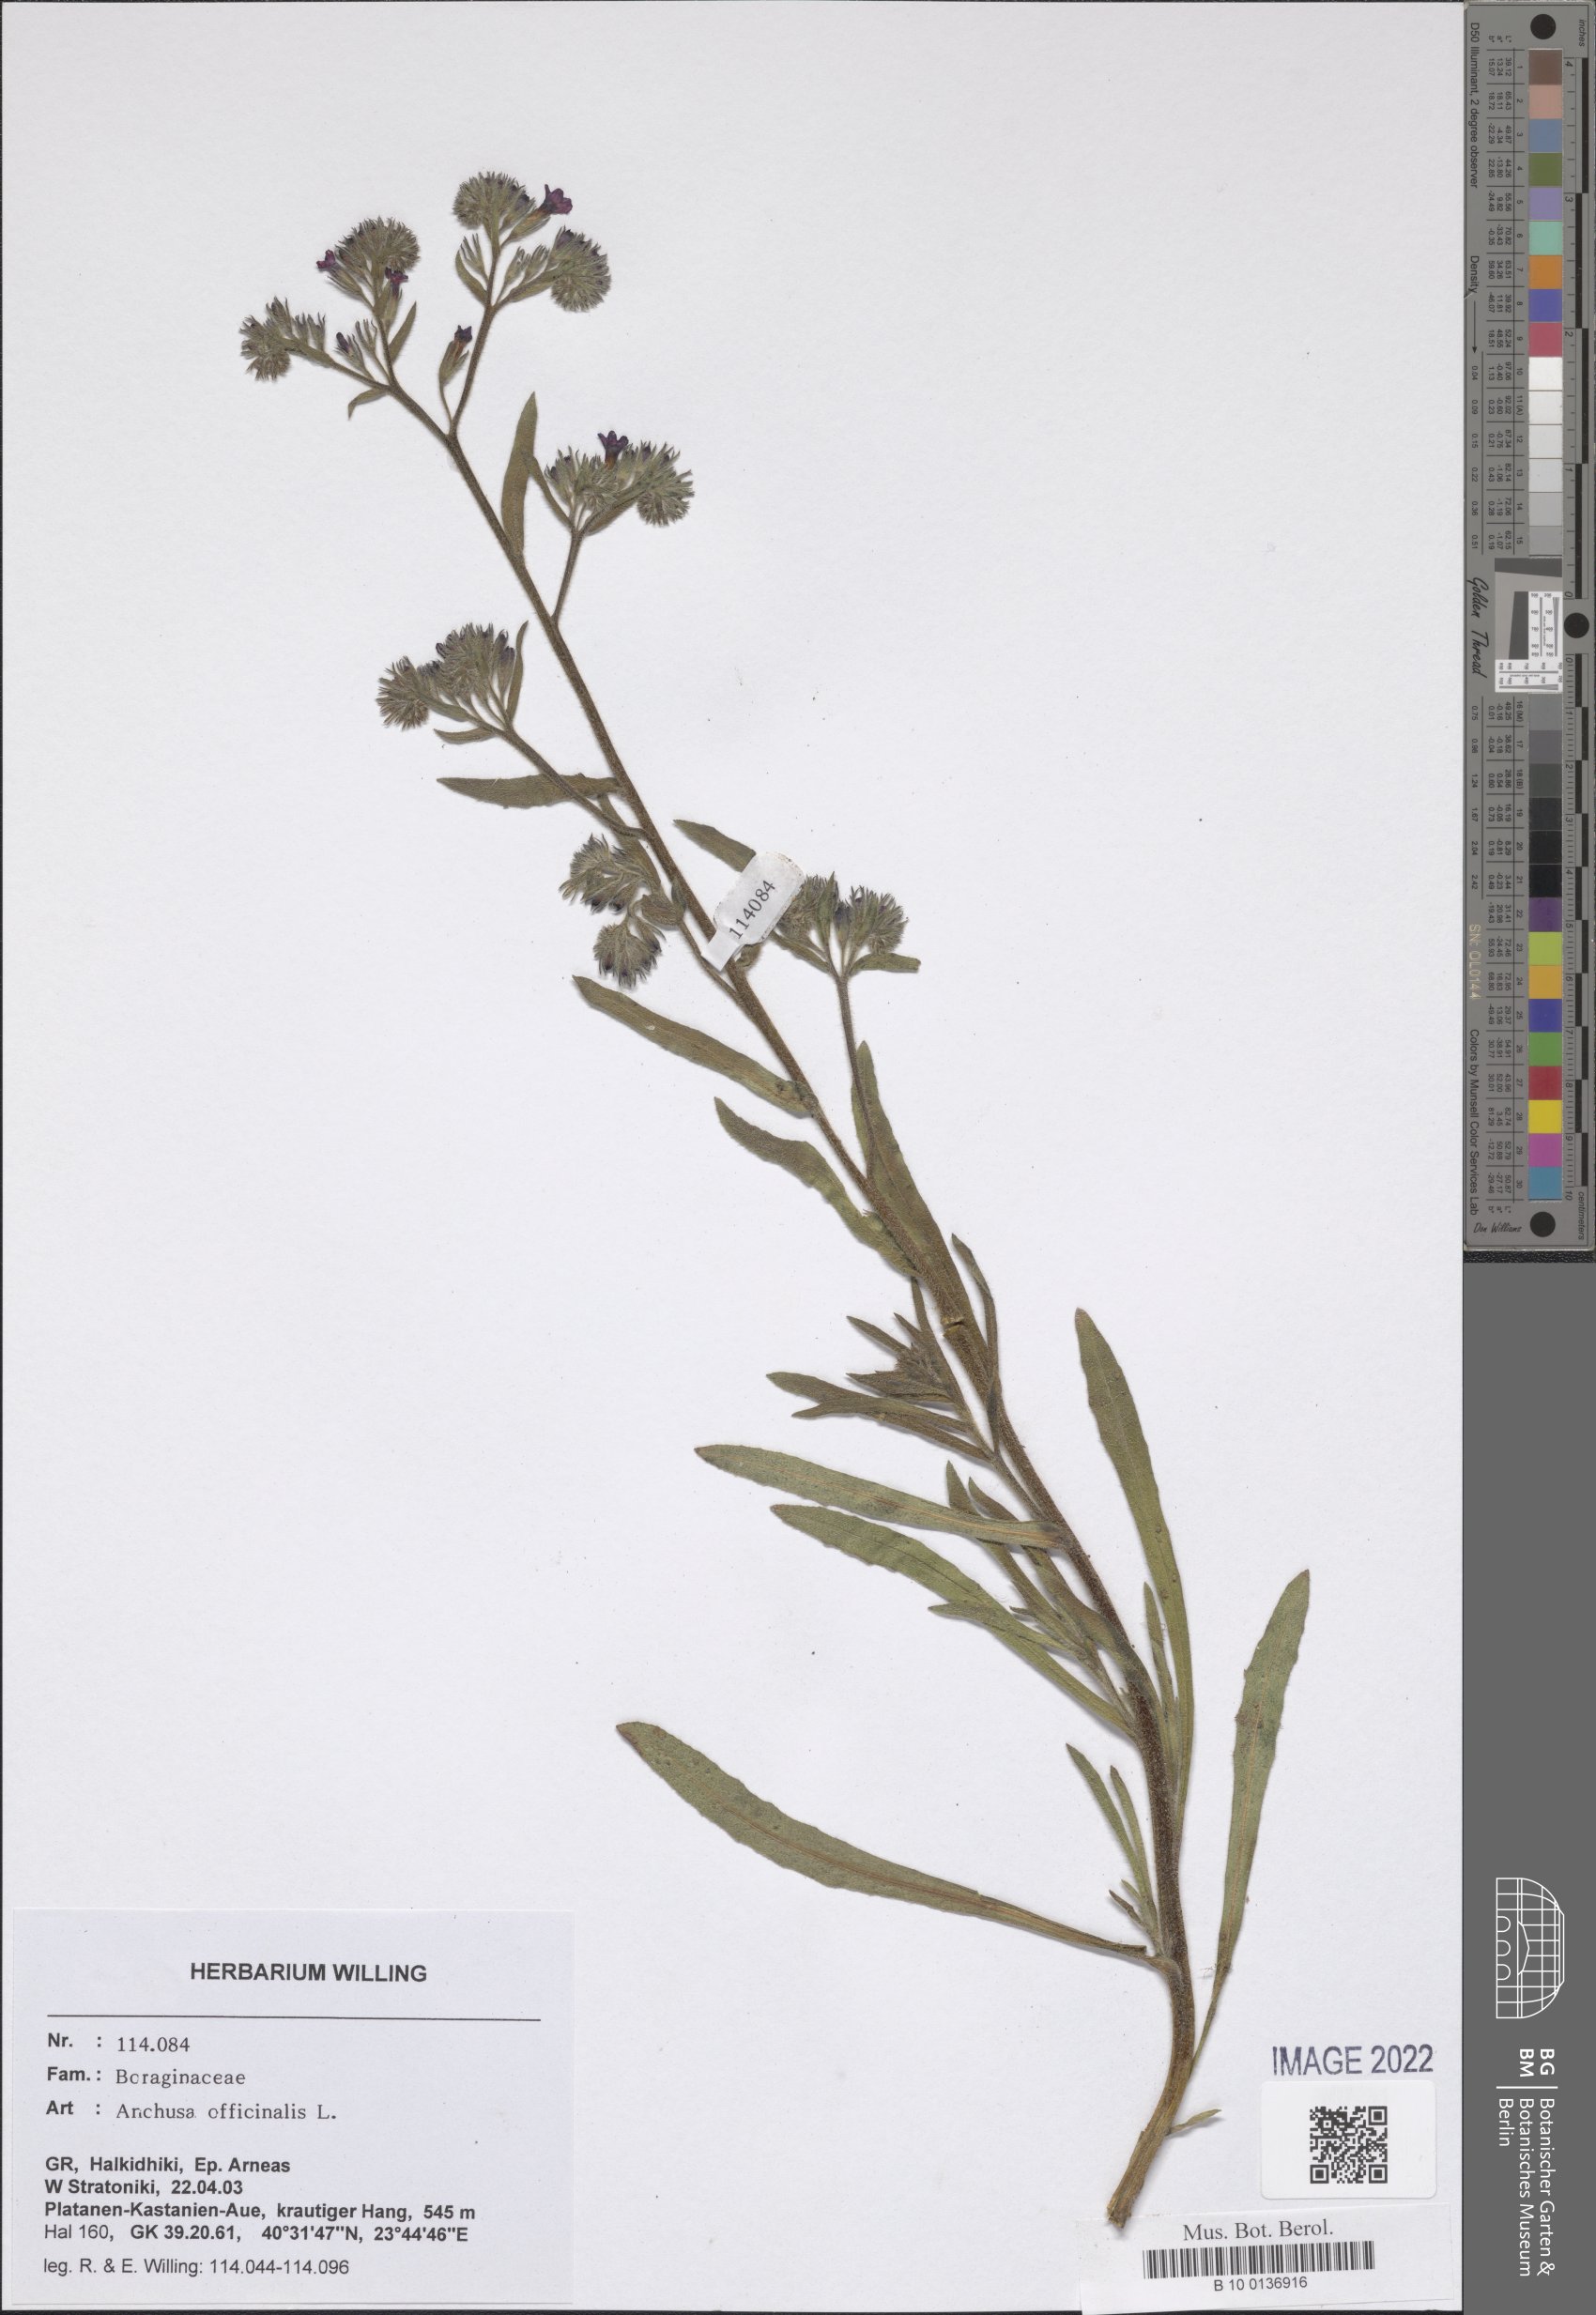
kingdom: Plantae
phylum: Tracheophyta
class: Magnoliopsida
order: Boraginales
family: Boraginaceae
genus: Anchusa
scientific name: Anchusa officinalis
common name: Alkanet
